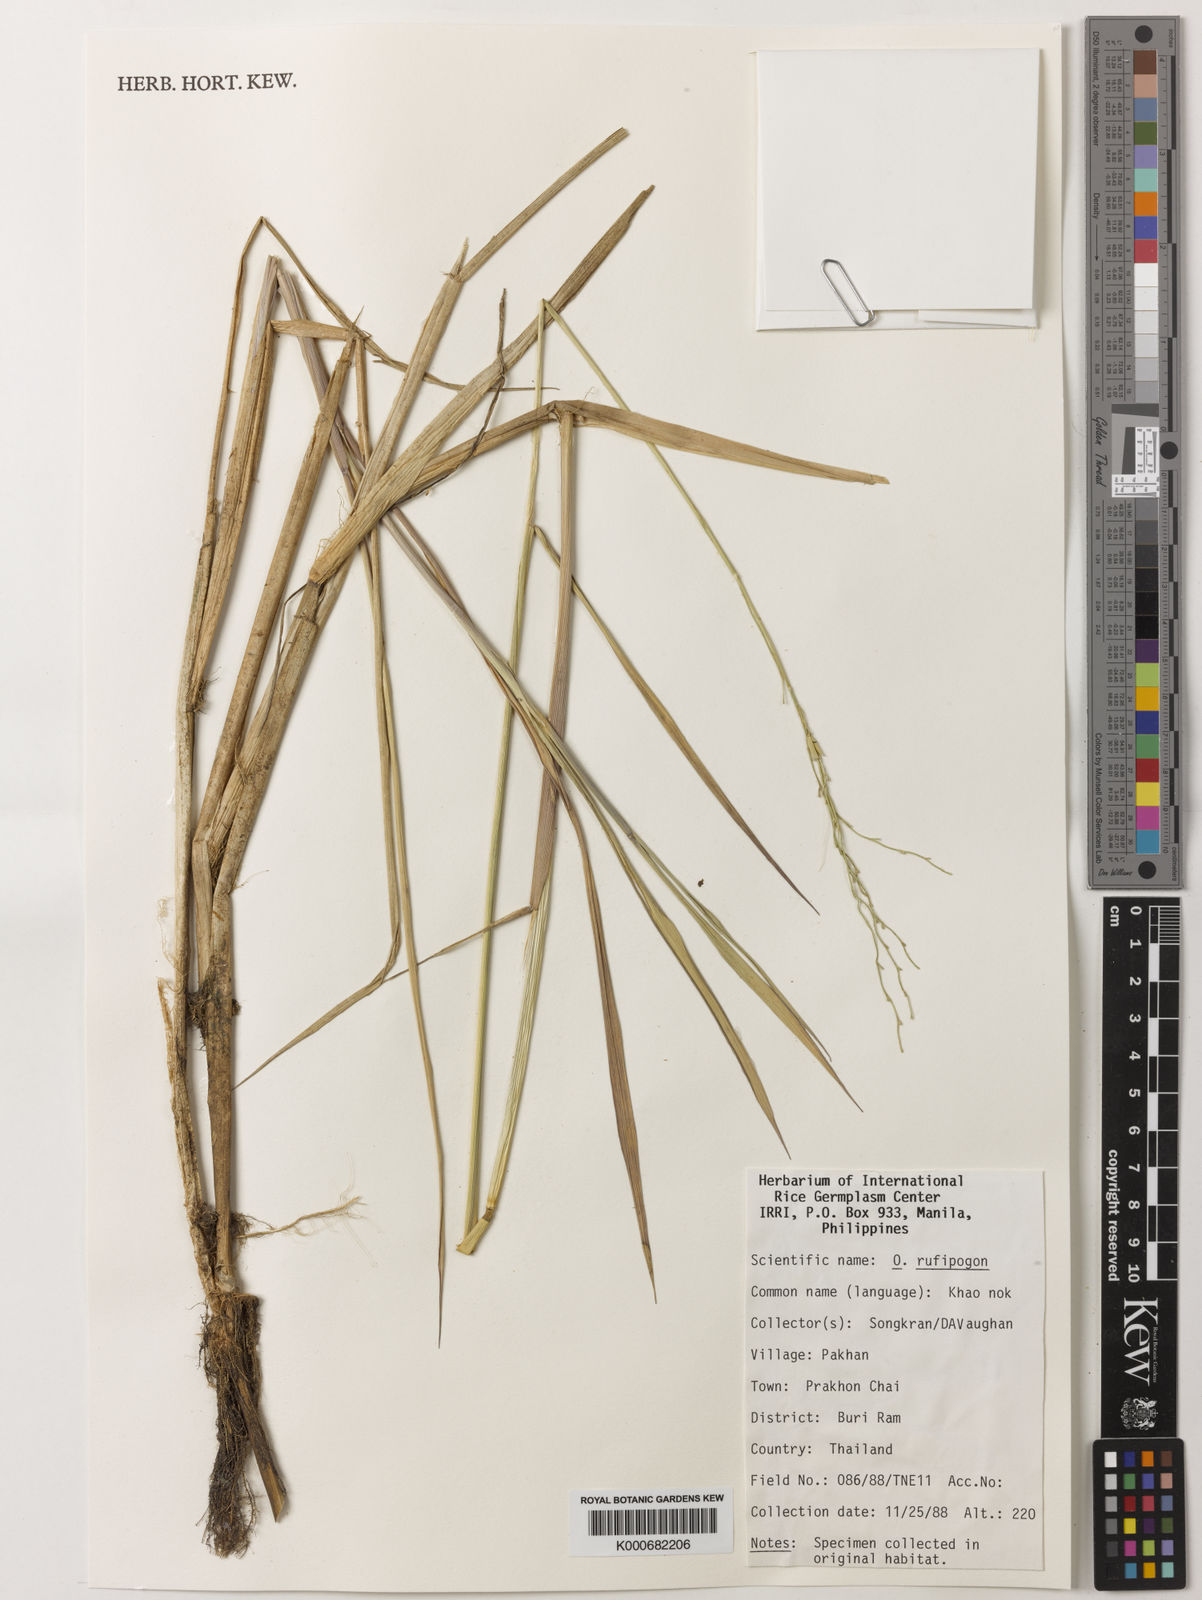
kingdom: Plantae
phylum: Tracheophyta
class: Liliopsida
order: Poales
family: Poaceae
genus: Oryza
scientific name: Oryza rufipogon
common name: Red rice
